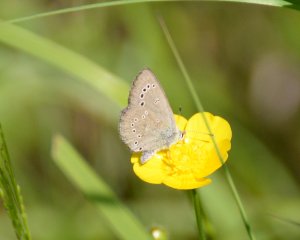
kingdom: Animalia
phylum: Arthropoda
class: Insecta
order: Lepidoptera
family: Lycaenidae
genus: Glaucopsyche
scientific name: Glaucopsyche lygdamus
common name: Silvery Blue
